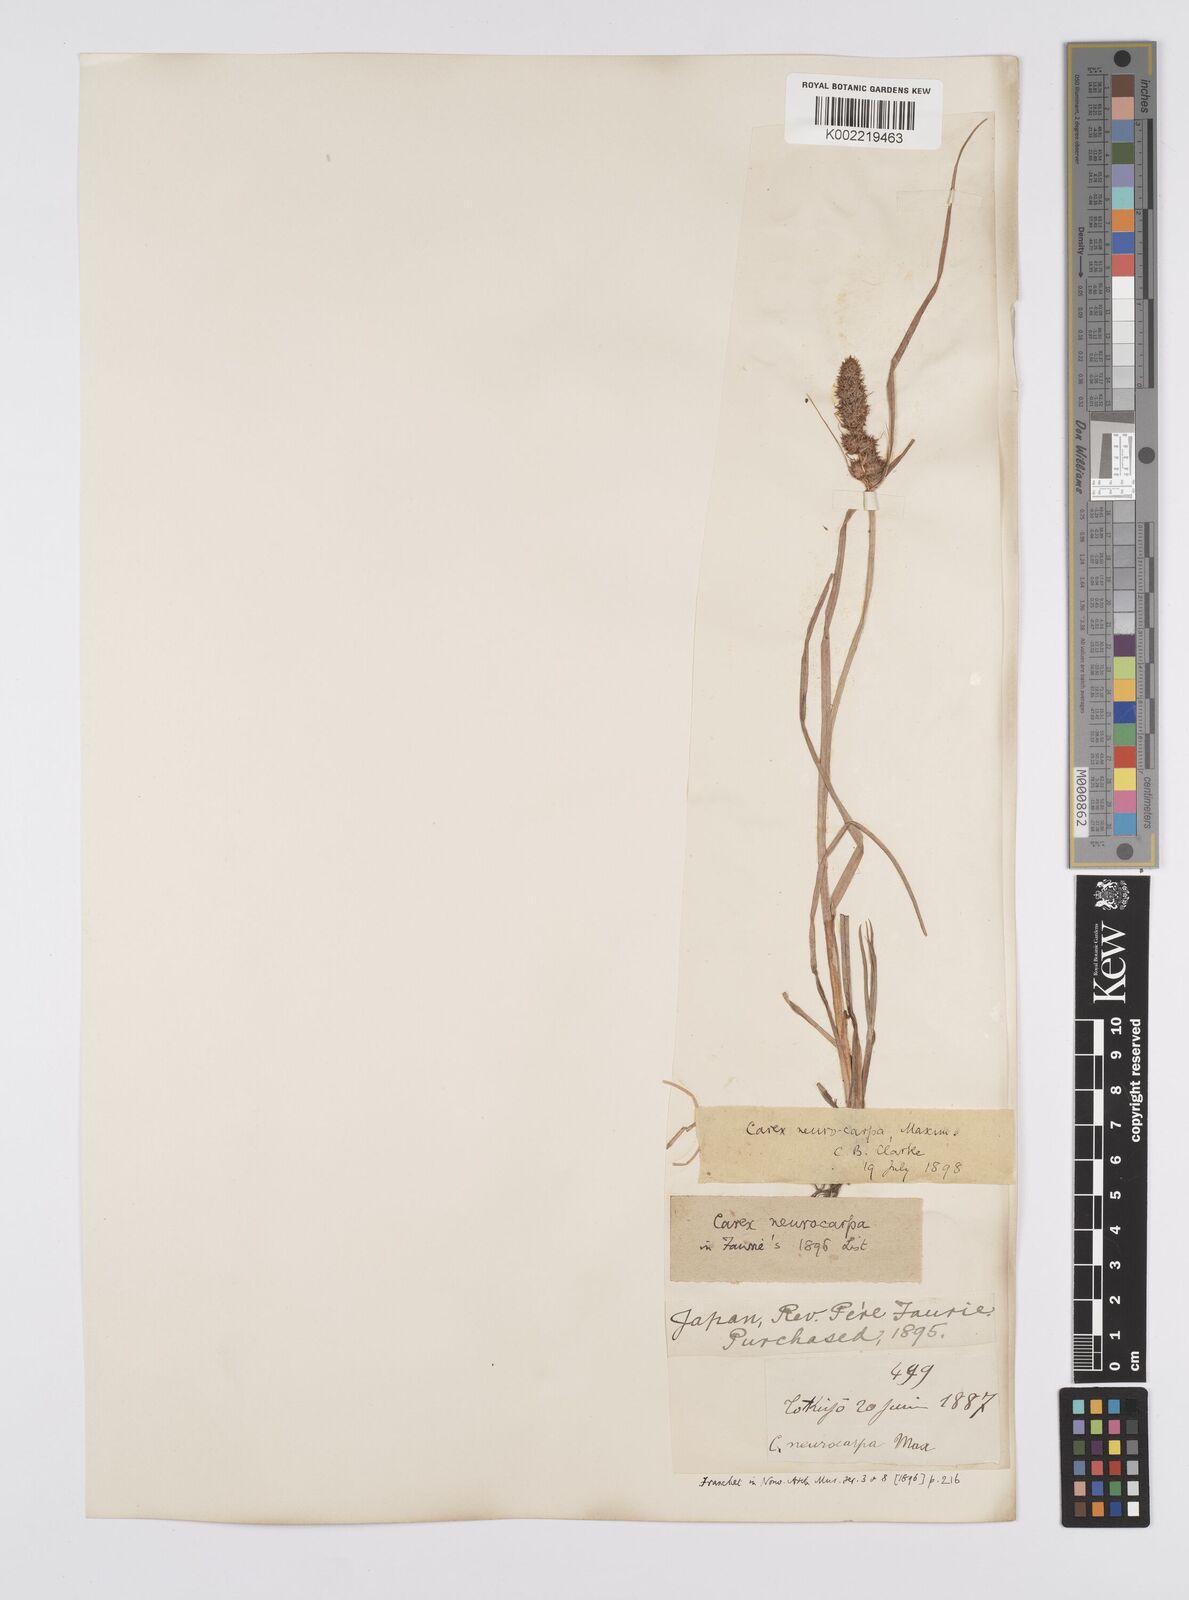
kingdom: Plantae
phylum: Tracheophyta
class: Liliopsida
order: Poales
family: Cyperaceae
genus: Carex
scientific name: Carex neurocarpa
